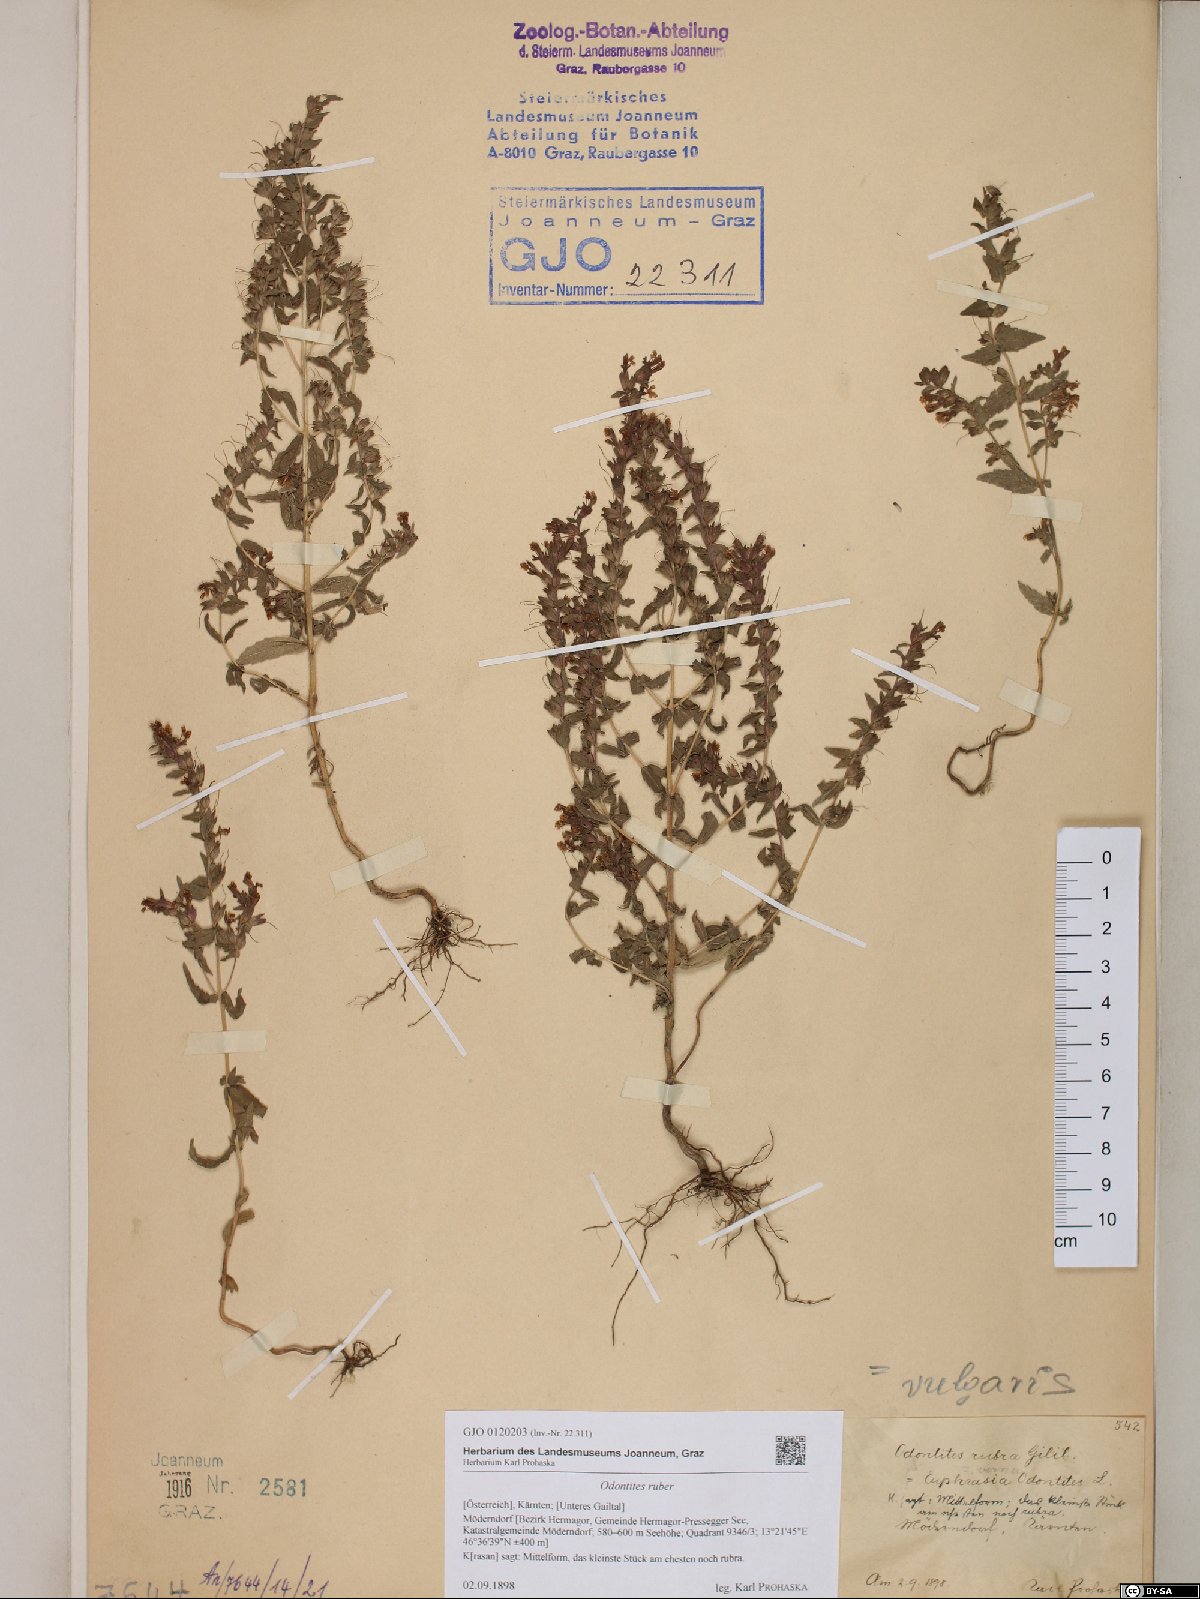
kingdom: Plantae
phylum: Tracheophyta
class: Magnoliopsida
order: Lamiales
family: Orobanchaceae
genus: Odontites
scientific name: Odontites vulgaris
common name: Broomrape
